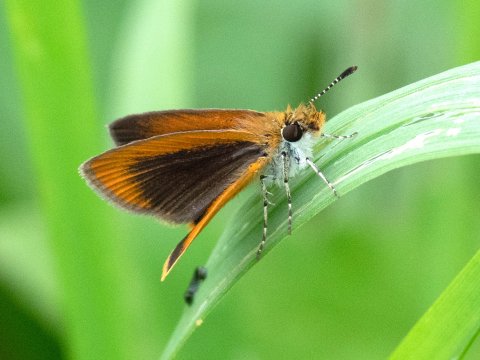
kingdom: Animalia
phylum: Arthropoda
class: Insecta
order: Lepidoptera
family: Hesperiidae
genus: Ancyloxypha
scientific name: Ancyloxypha numitor
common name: Least Skipper
